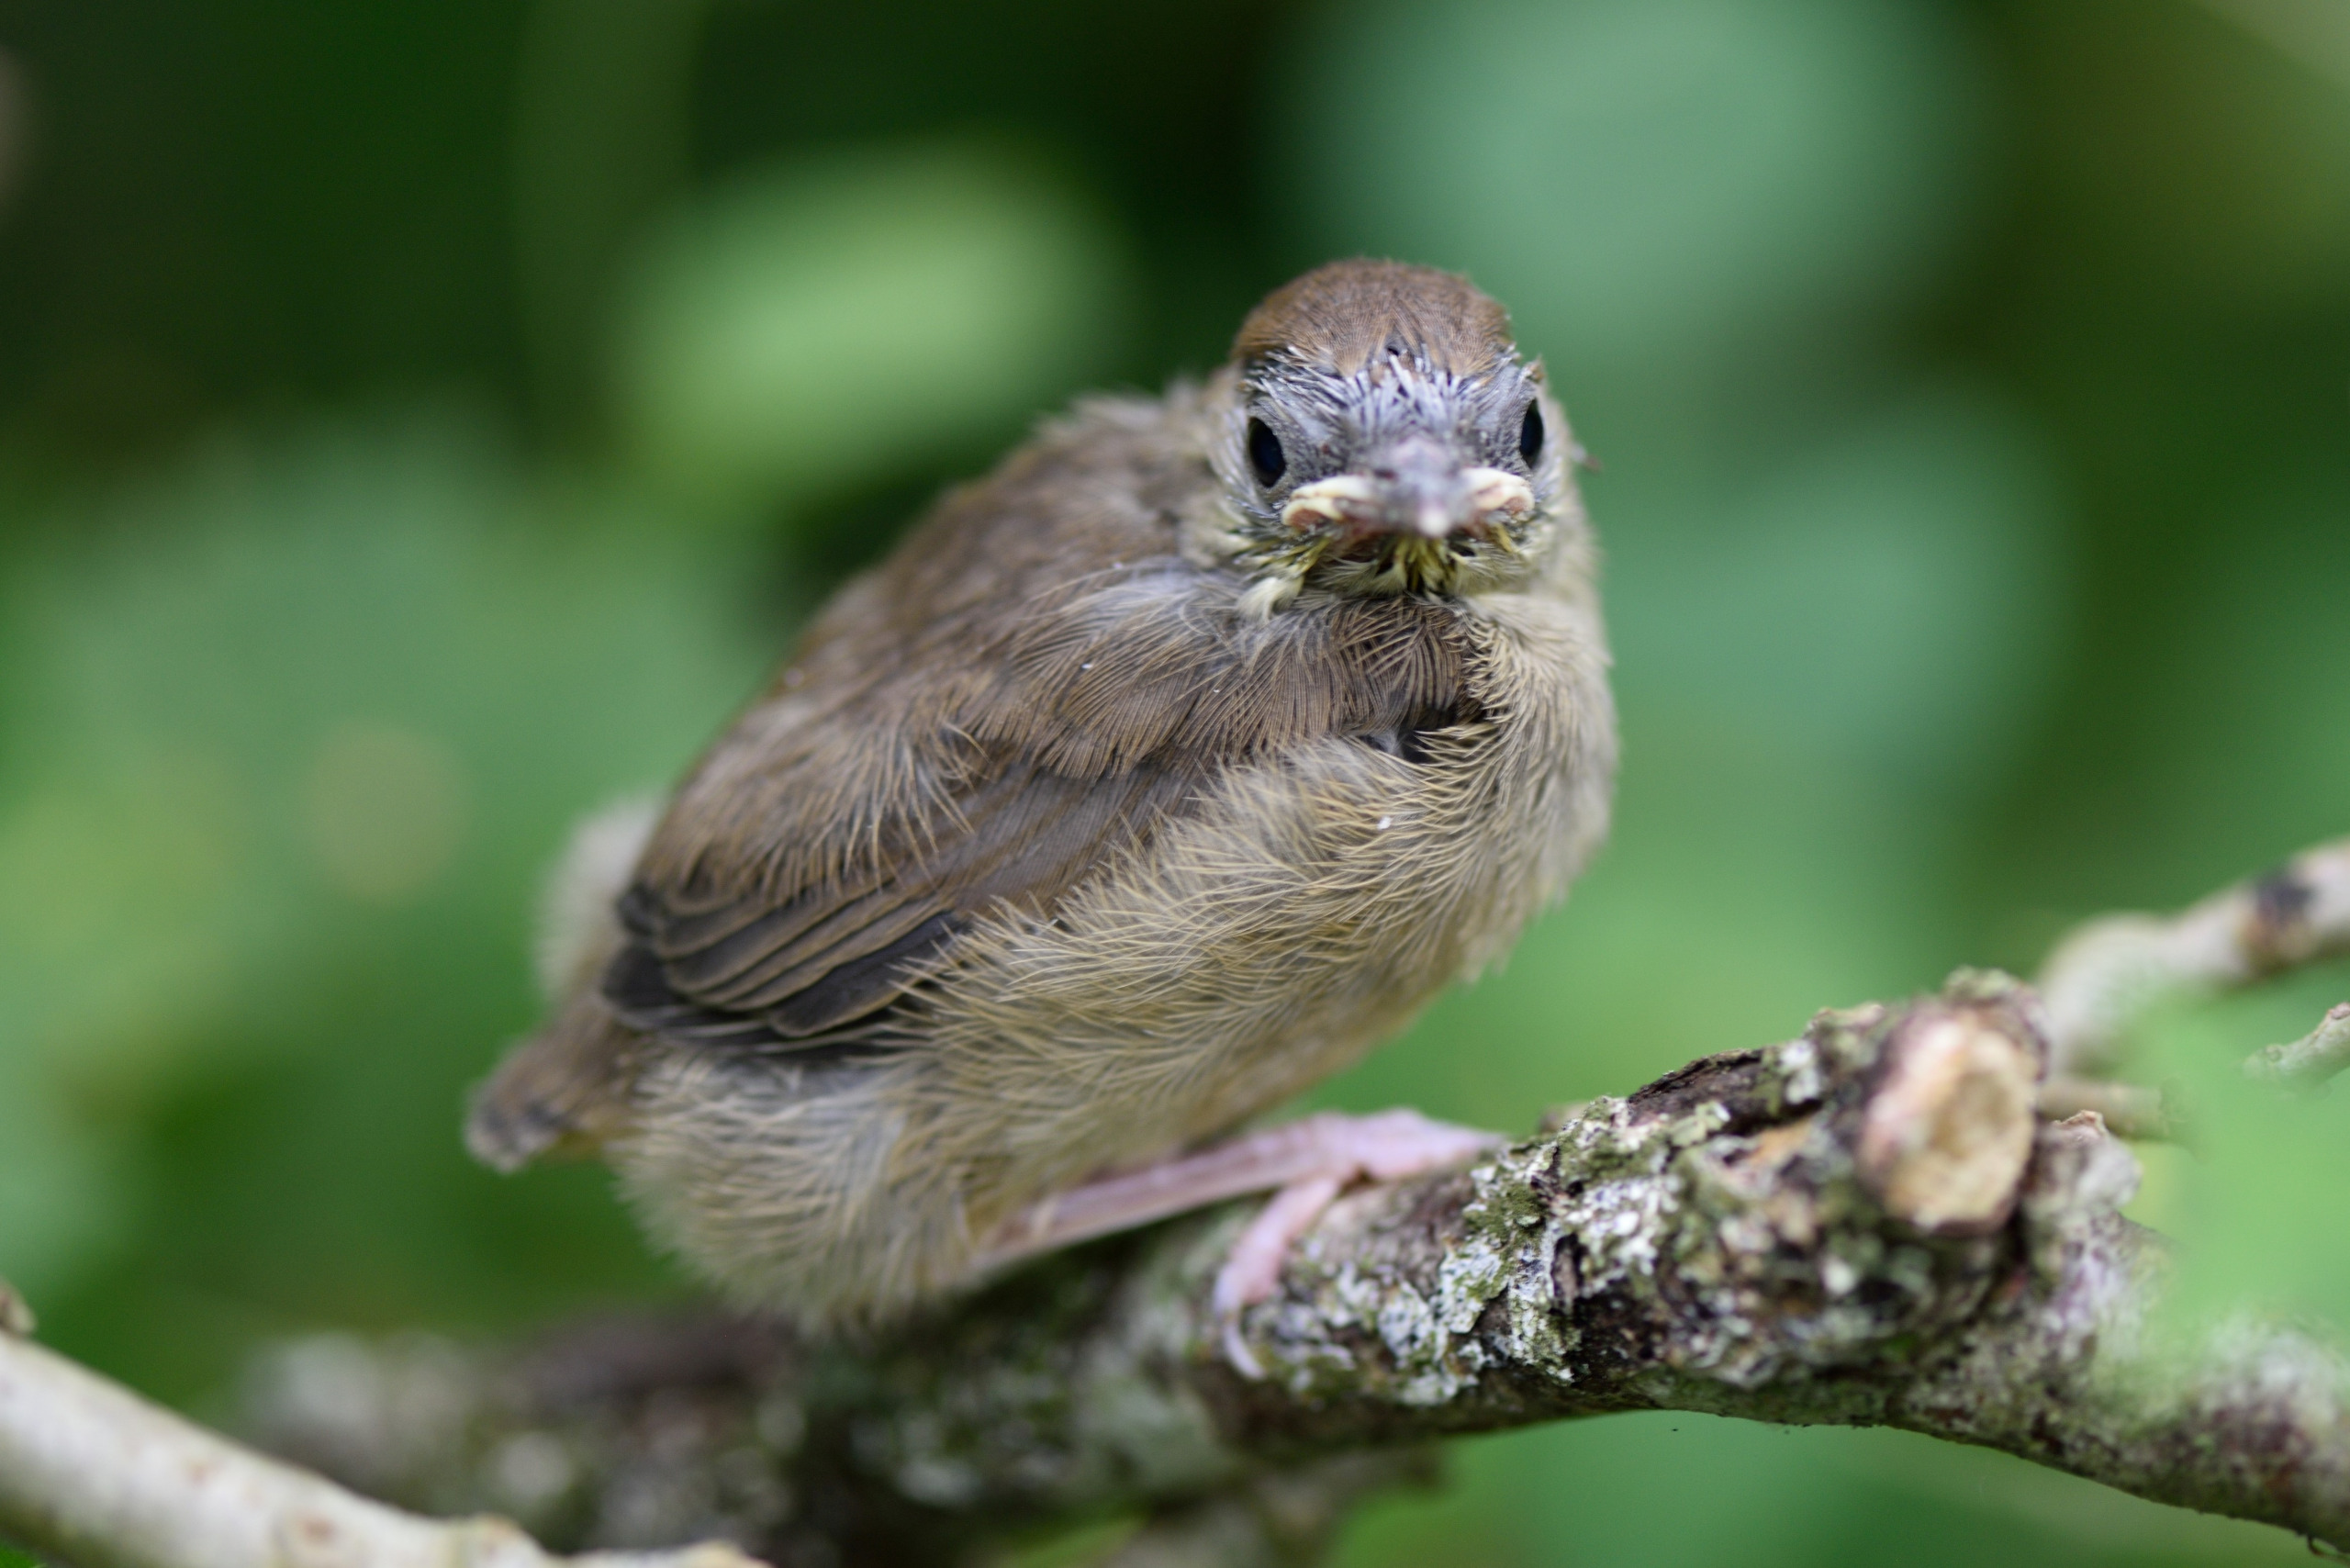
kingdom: Animalia
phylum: Chordata
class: Aves
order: Passeriformes
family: Sylviidae
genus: Sylvia
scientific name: Sylvia atricapilla
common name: Munk
